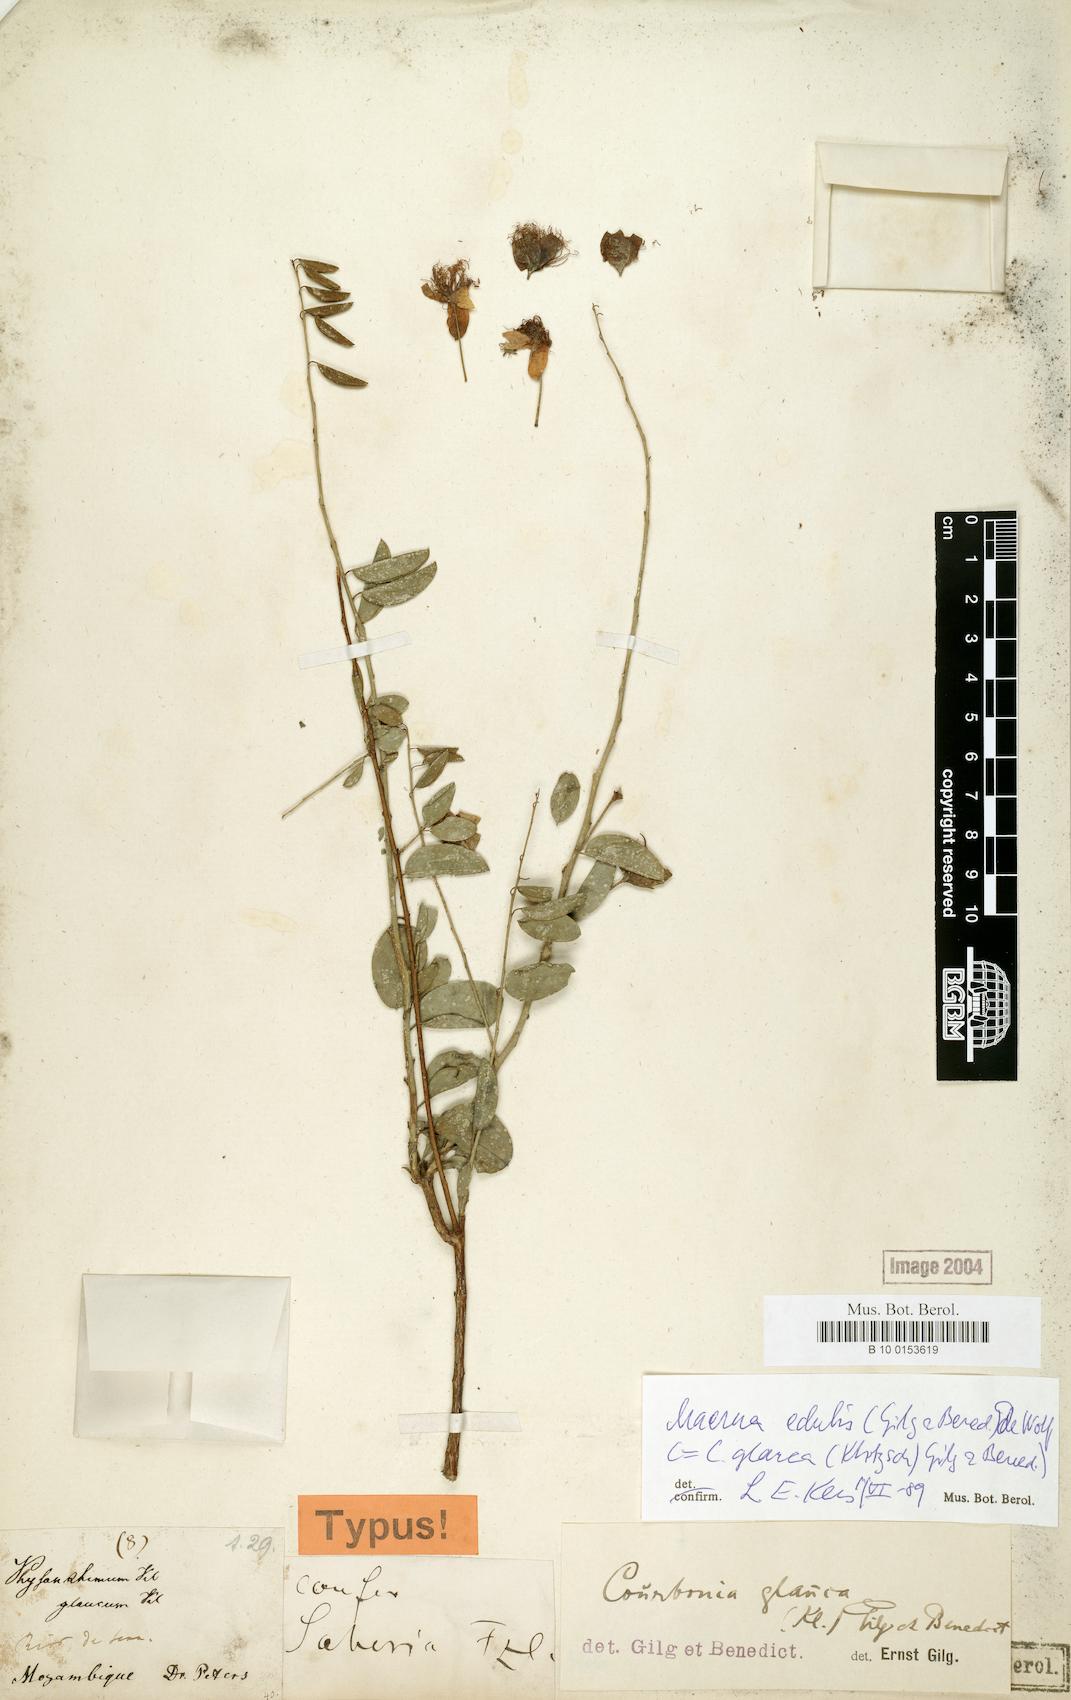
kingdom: Plantae
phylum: Tracheophyta
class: Magnoliopsida
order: Brassicales
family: Capparaceae
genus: Maerua
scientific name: Maerua edulis
